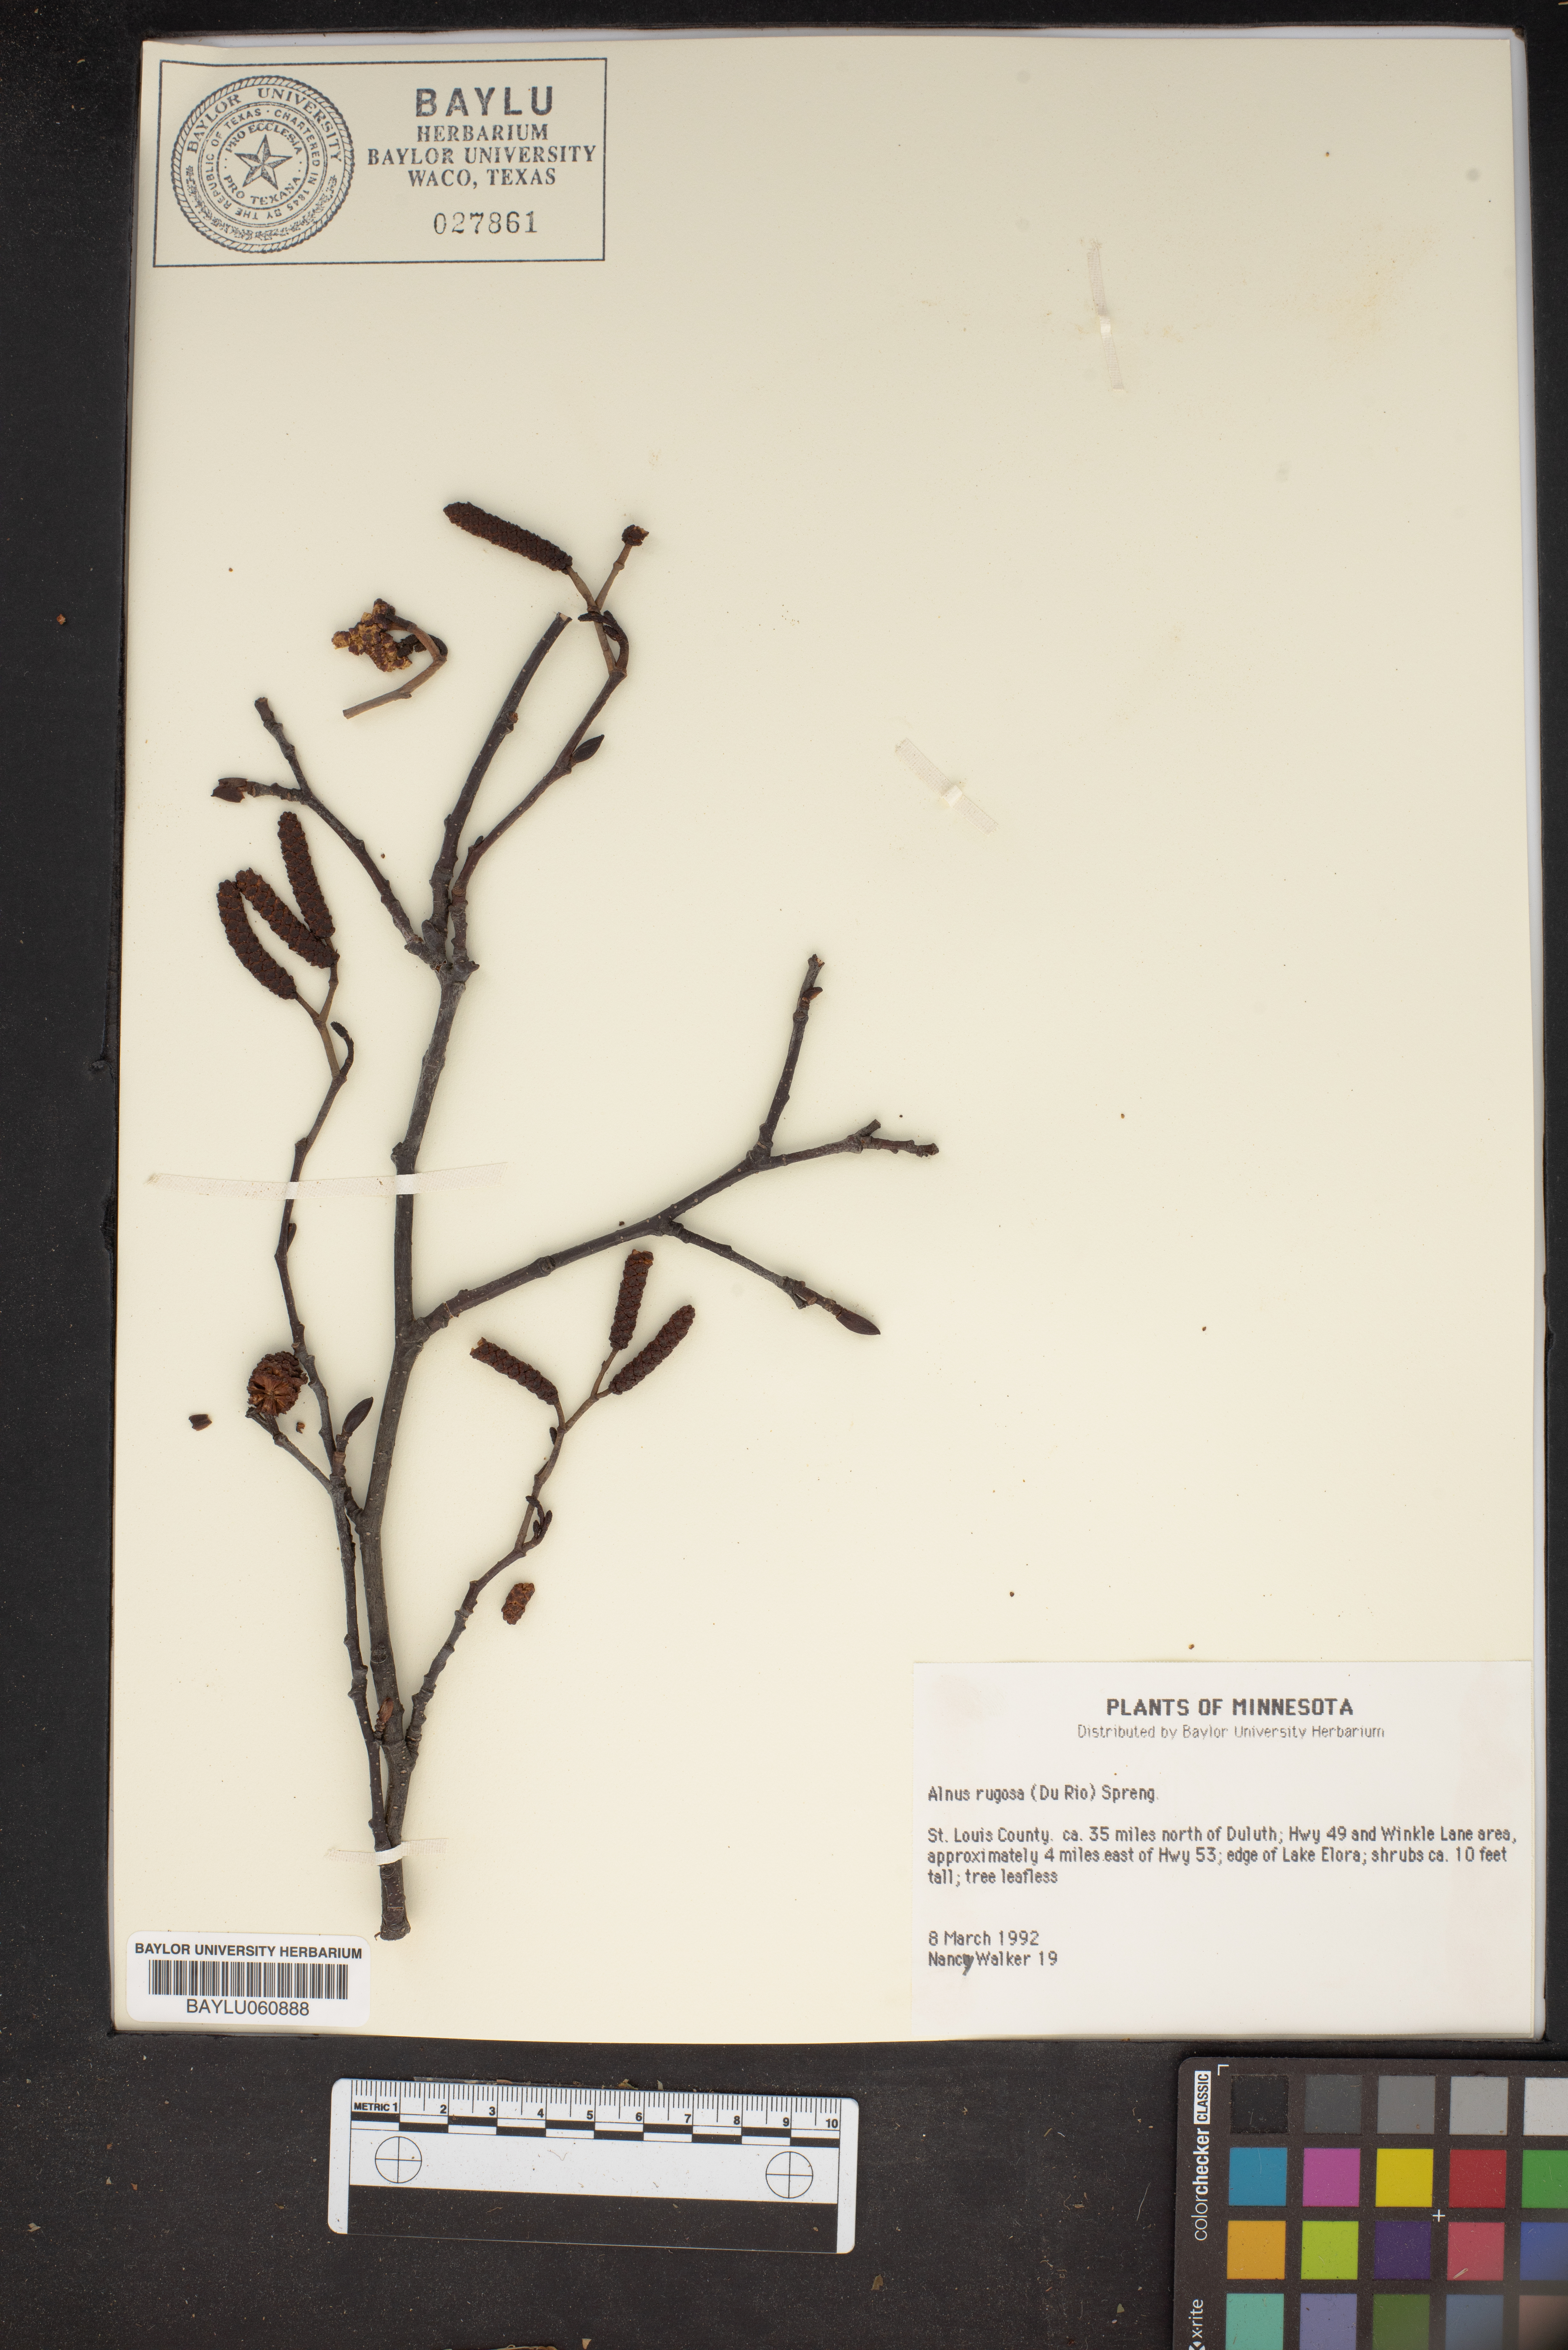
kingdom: Plantae
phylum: Tracheophyta
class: Magnoliopsida
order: Fagales
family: Betulaceae
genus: Alnus
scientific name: Alnus incana
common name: Grey alder
